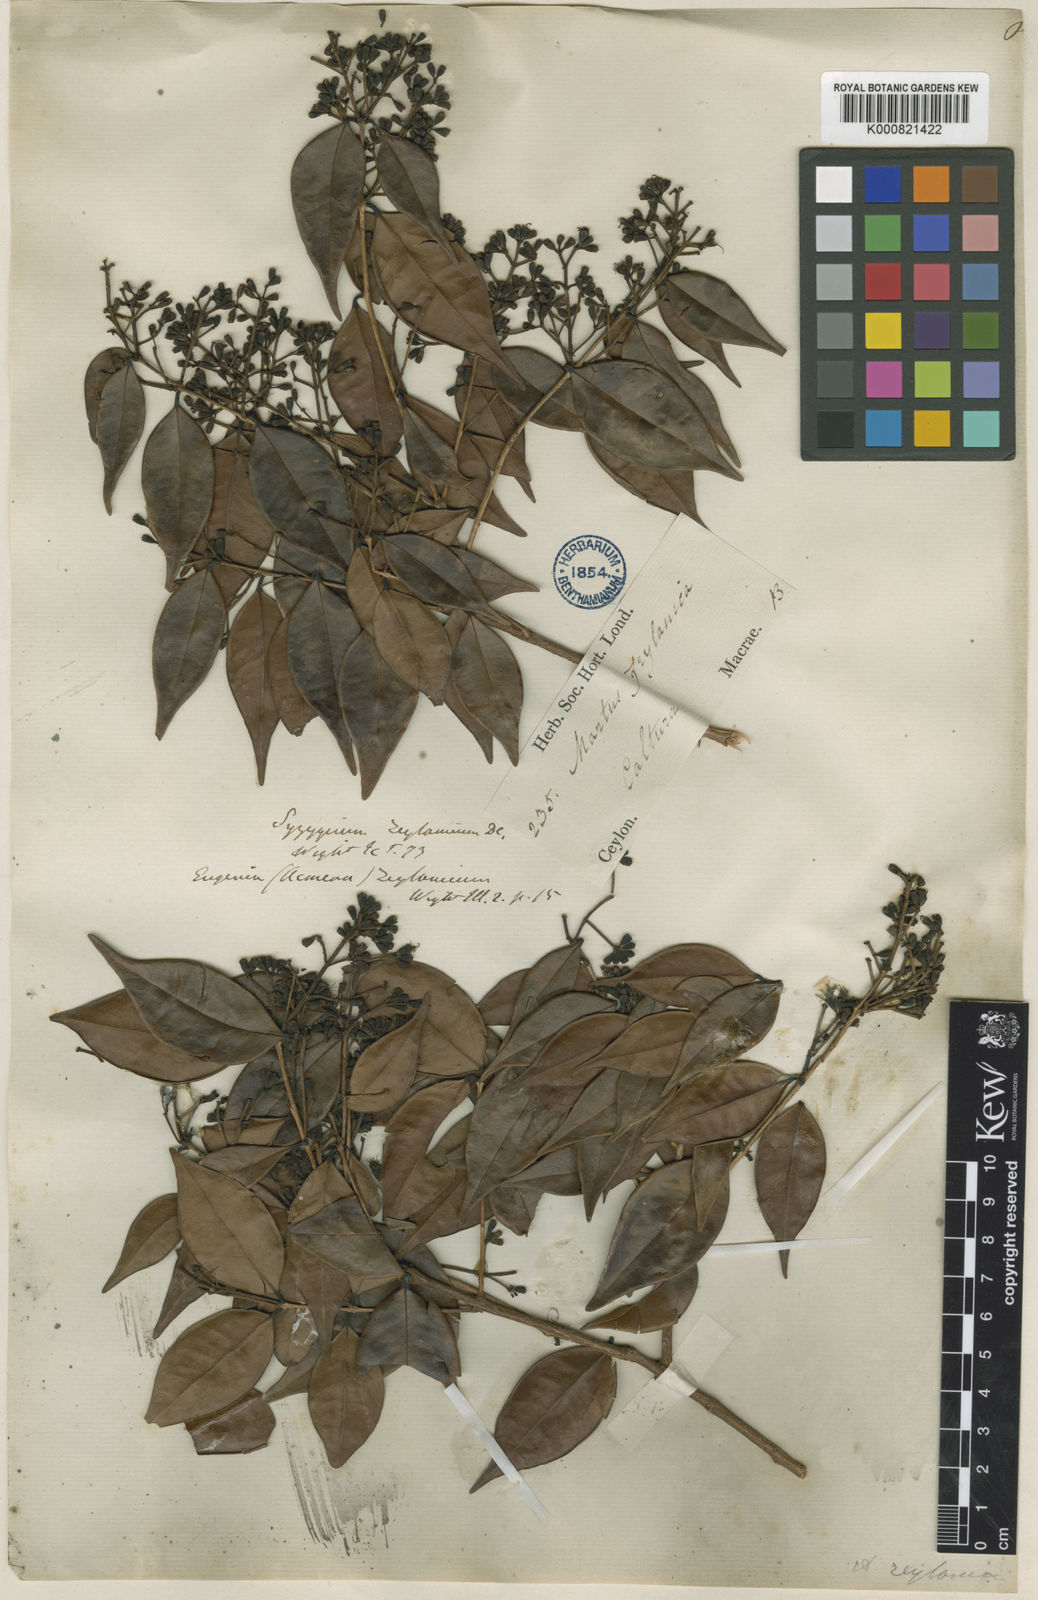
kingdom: Plantae
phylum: Tracheophyta
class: Magnoliopsida
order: Myrtales
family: Myrtaceae
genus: Syzygium
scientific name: Syzygium zeylanicum
